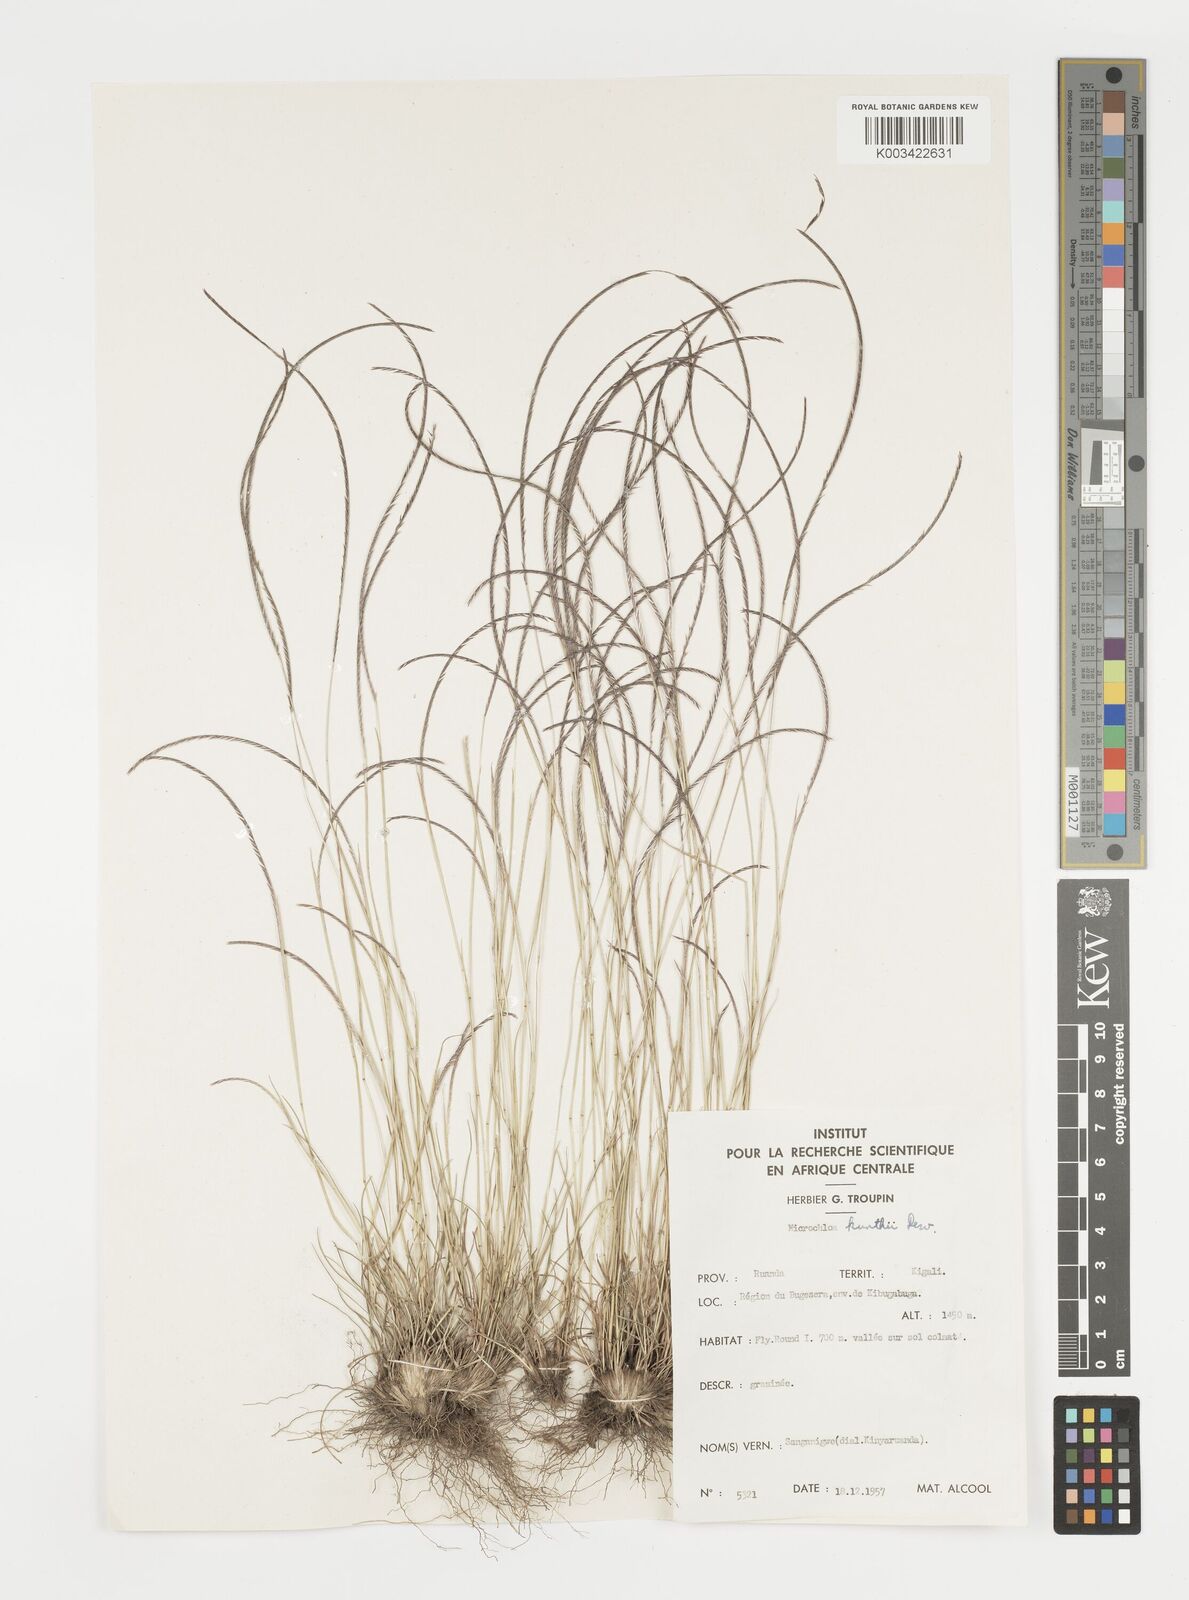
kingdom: Plantae
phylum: Tracheophyta
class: Liliopsida
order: Poales
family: Poaceae
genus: Microchloa
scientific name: Microchloa kunthii
